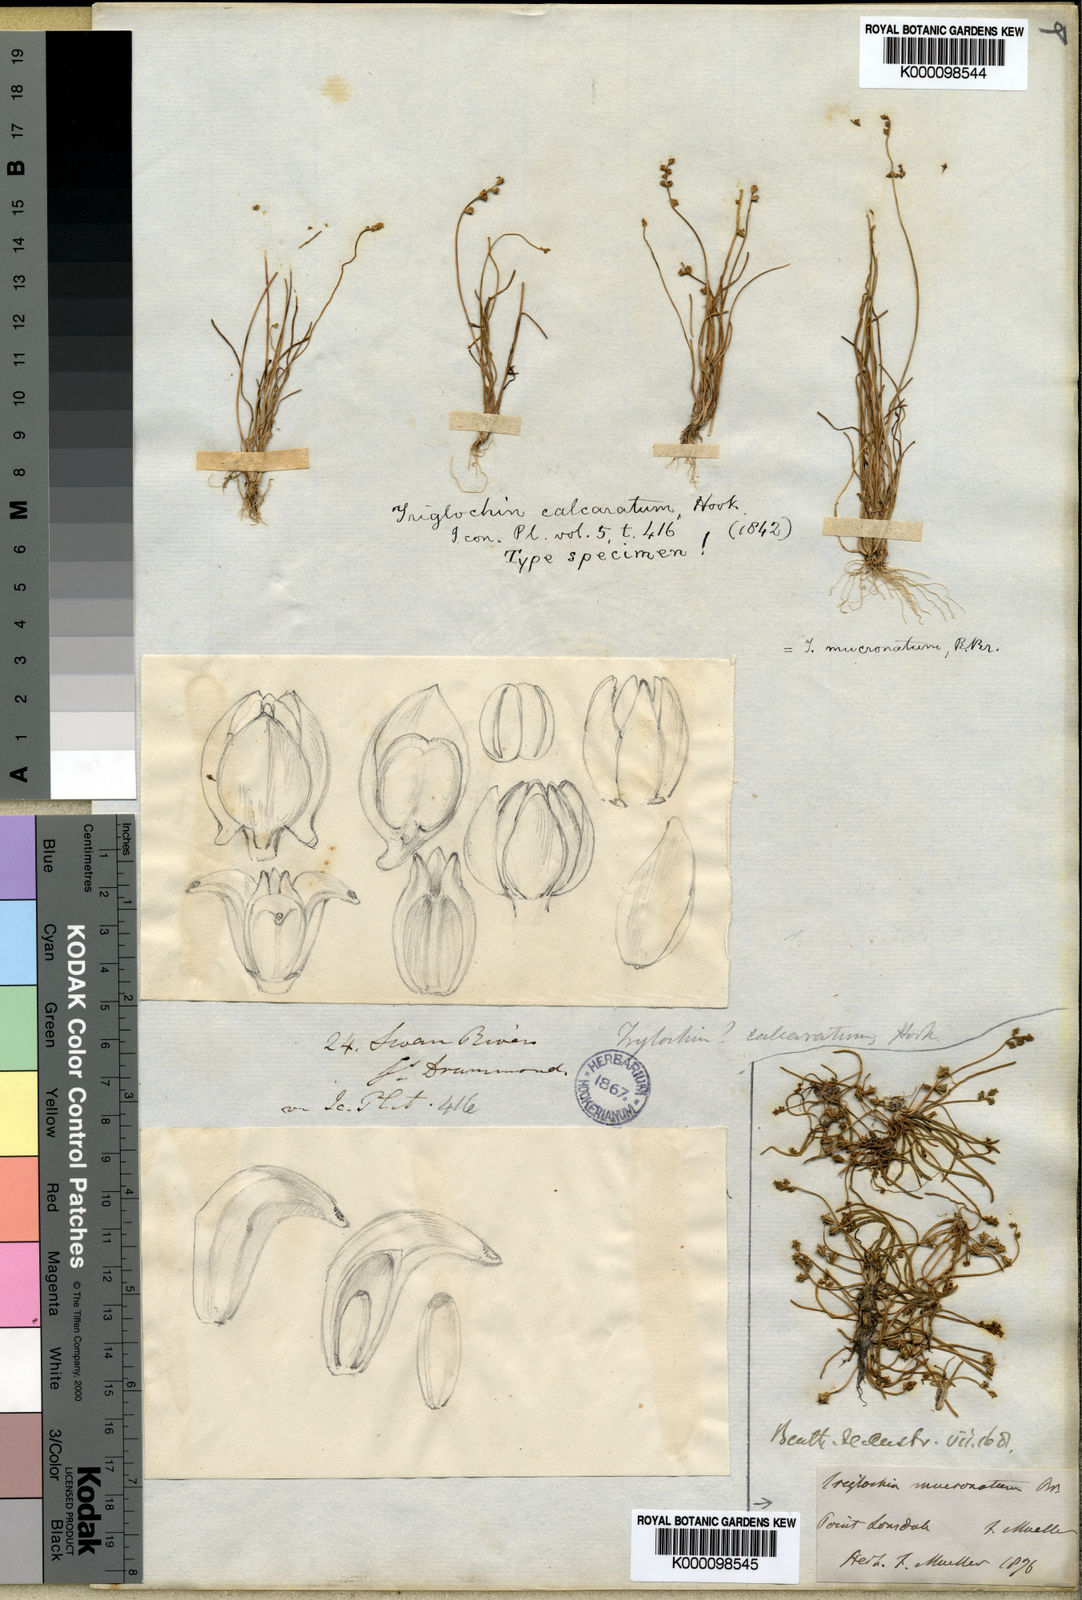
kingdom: Plantae
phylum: Tracheophyta
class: Liliopsida
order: Alismatales
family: Juncaginaceae
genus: Triglochin
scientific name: Triglochin mucronata
